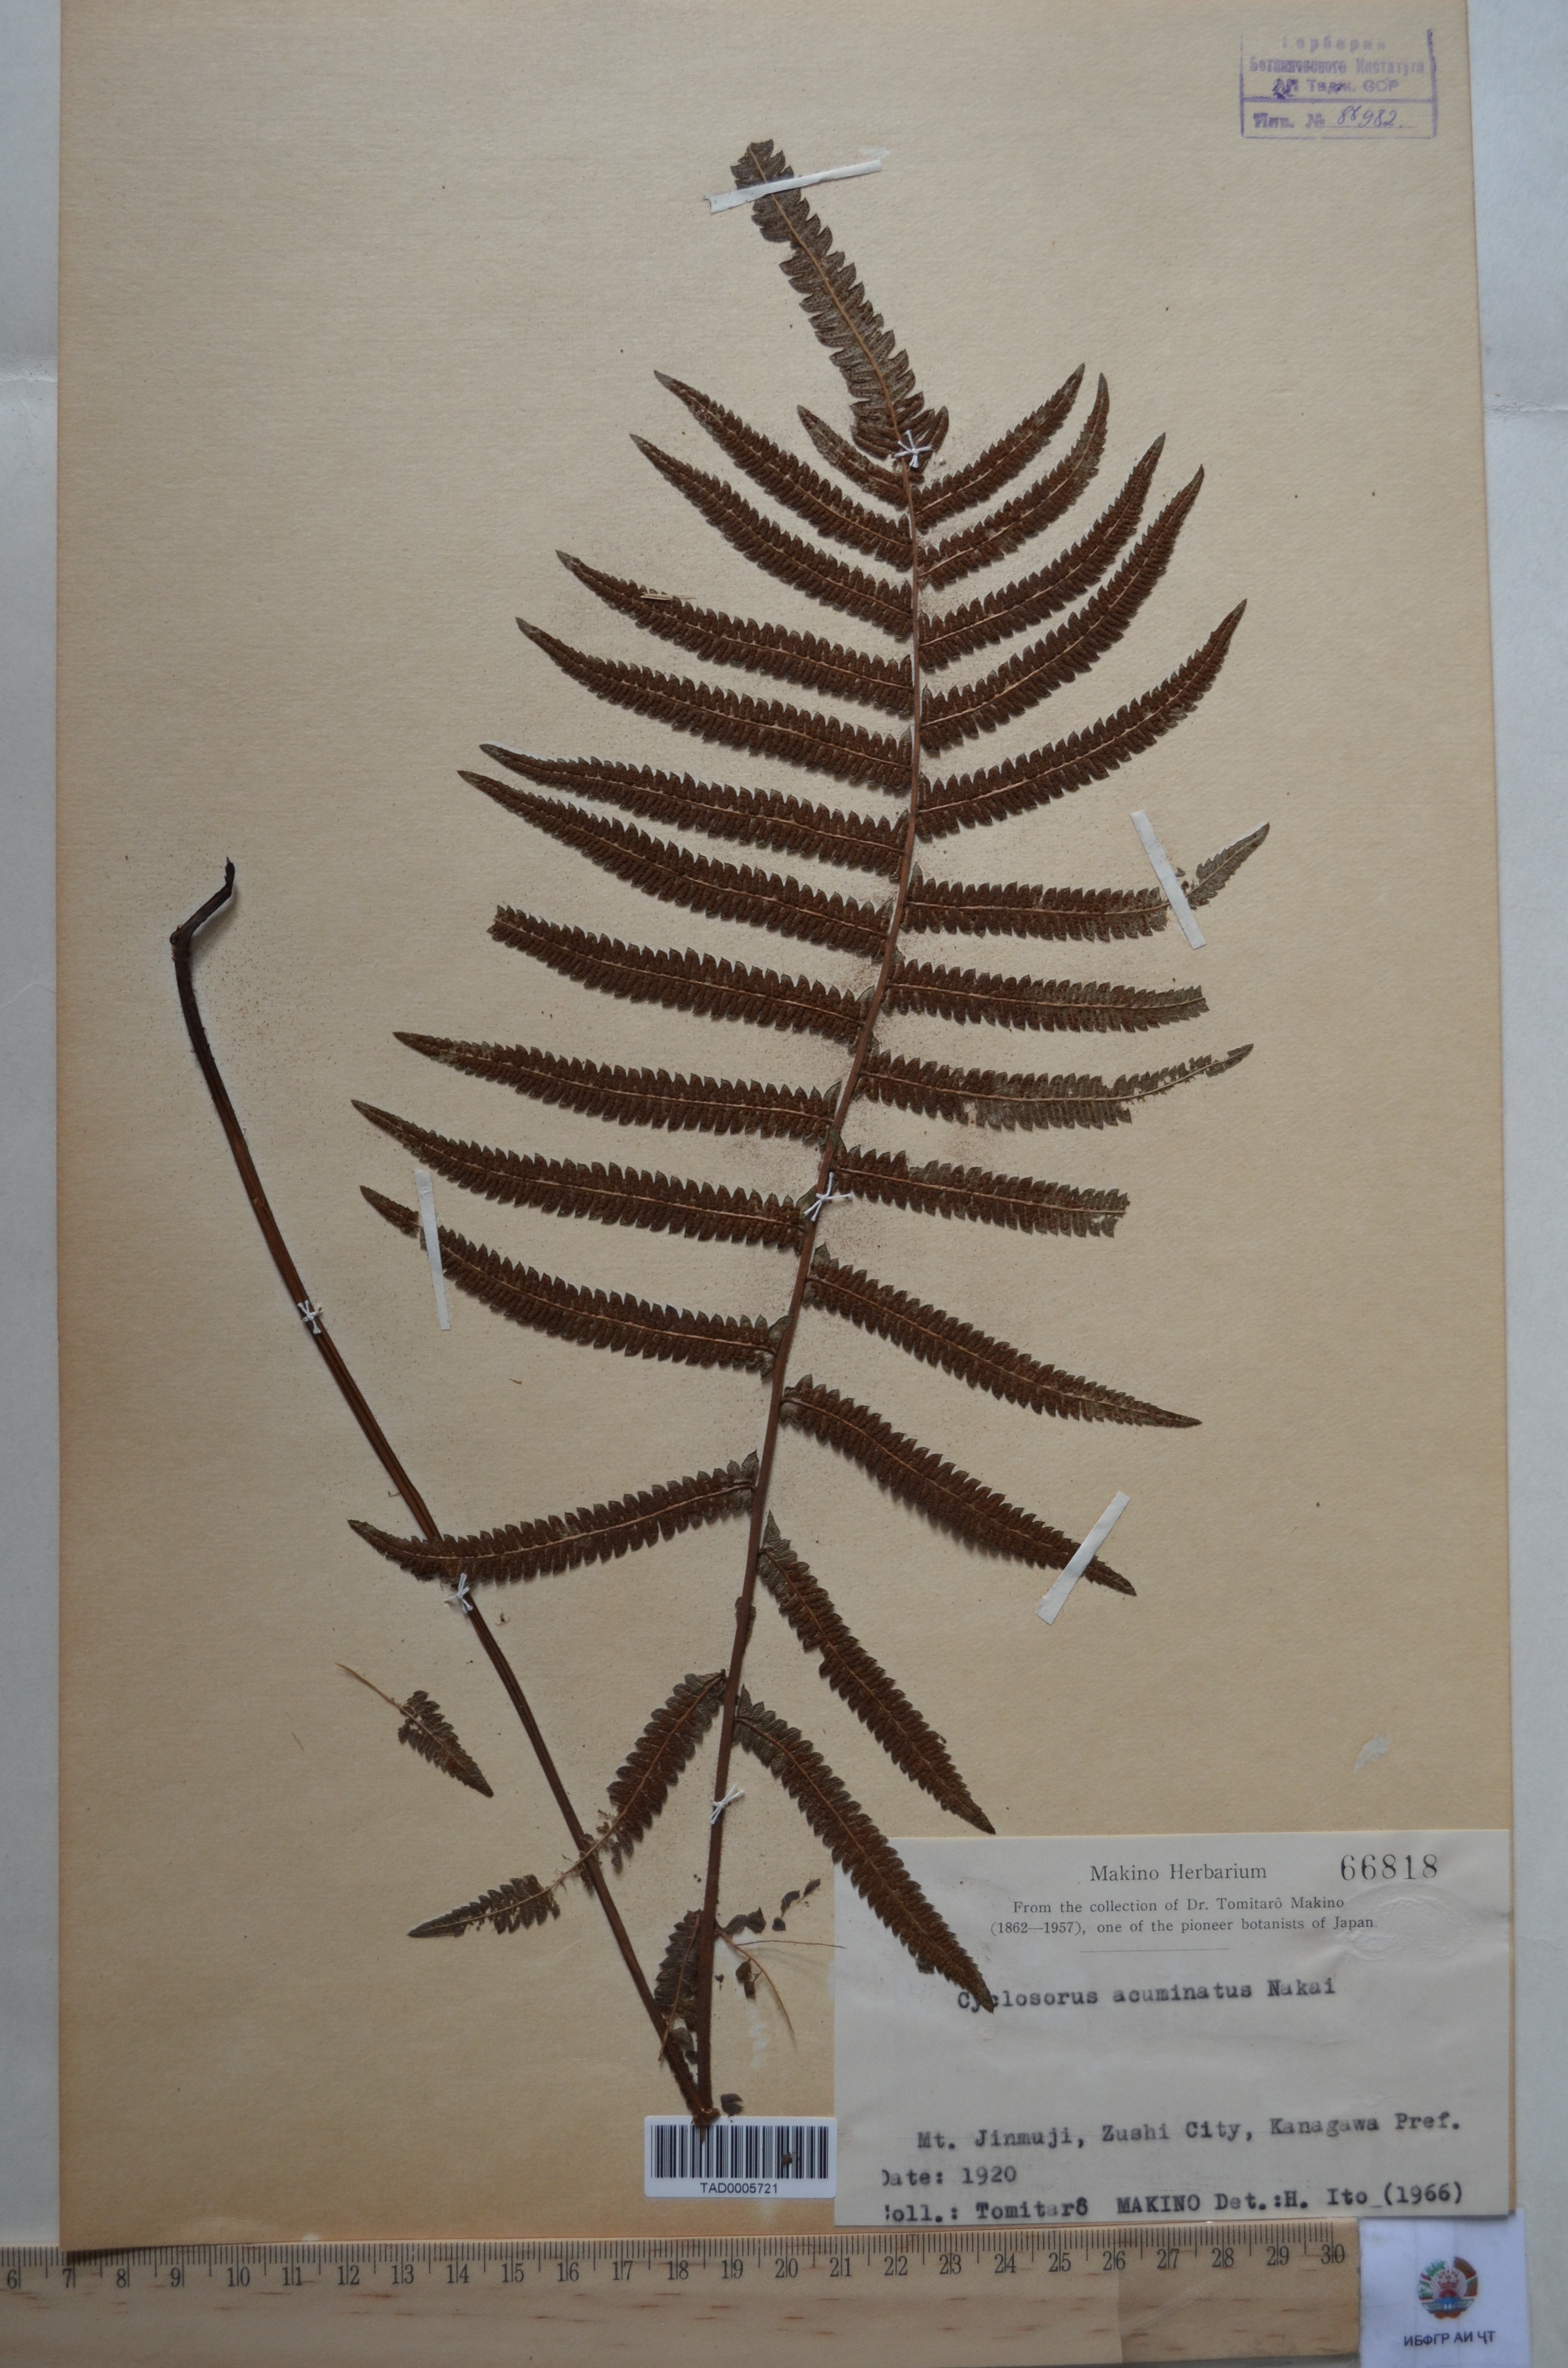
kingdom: Plantae
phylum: Tracheophyta
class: Polypodiopsida
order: Polypodiales
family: Thelypteridaceae
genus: Christella
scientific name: Christella acuminata
